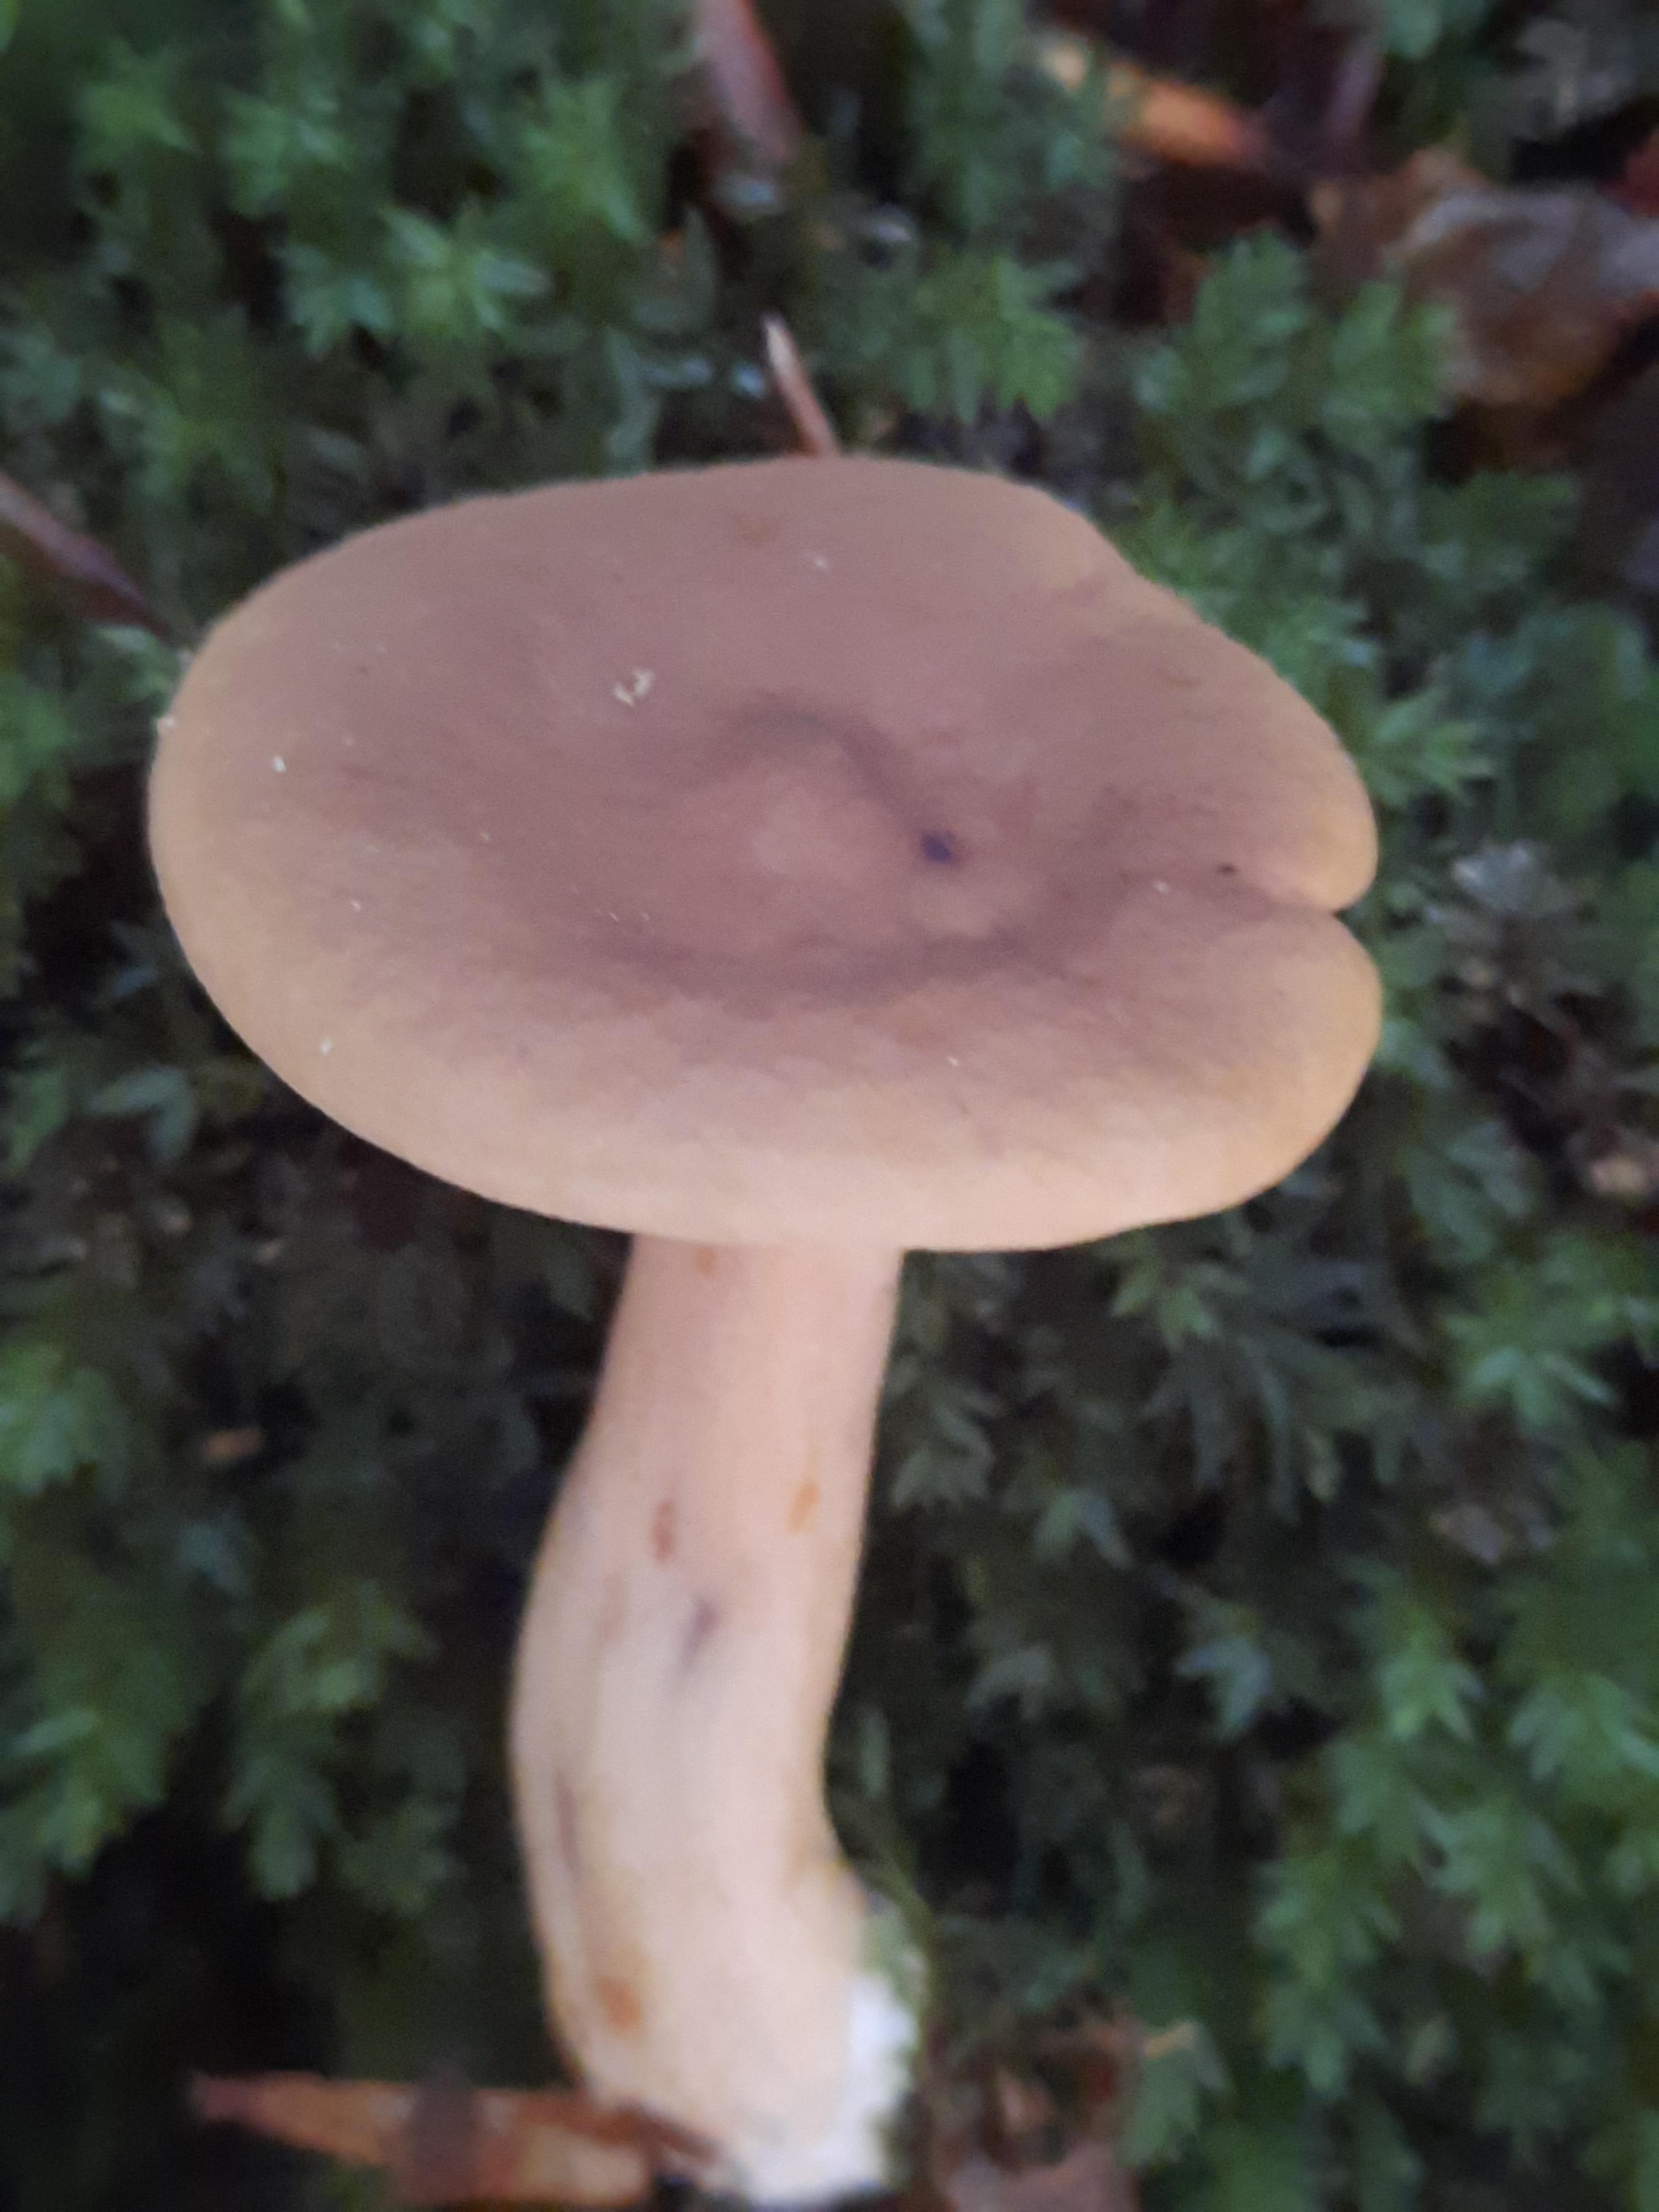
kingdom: Fungi
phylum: Basidiomycota
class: Agaricomycetes
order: Russulales
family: Russulaceae
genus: Lactarius
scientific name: Lactarius
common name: mælkehat
